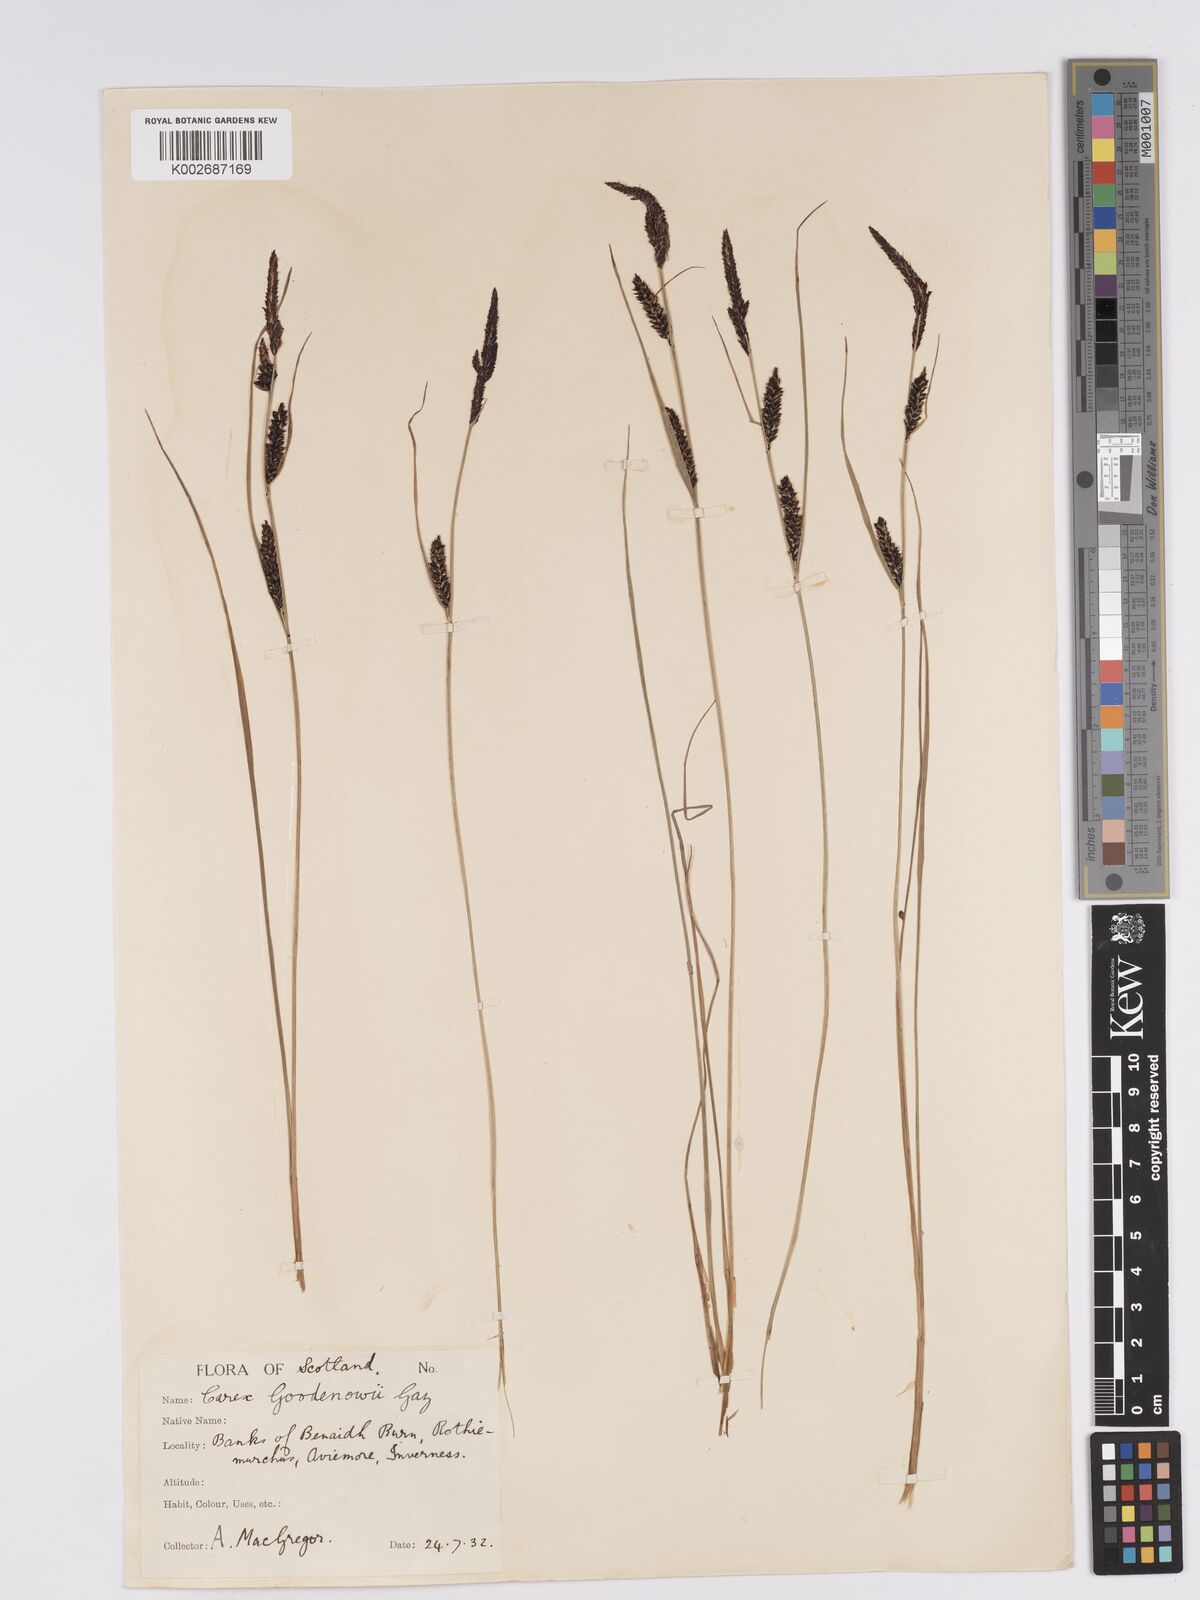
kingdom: Plantae
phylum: Tracheophyta
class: Liliopsida
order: Poales
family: Cyperaceae
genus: Carex
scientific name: Carex nigra
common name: Common sedge
